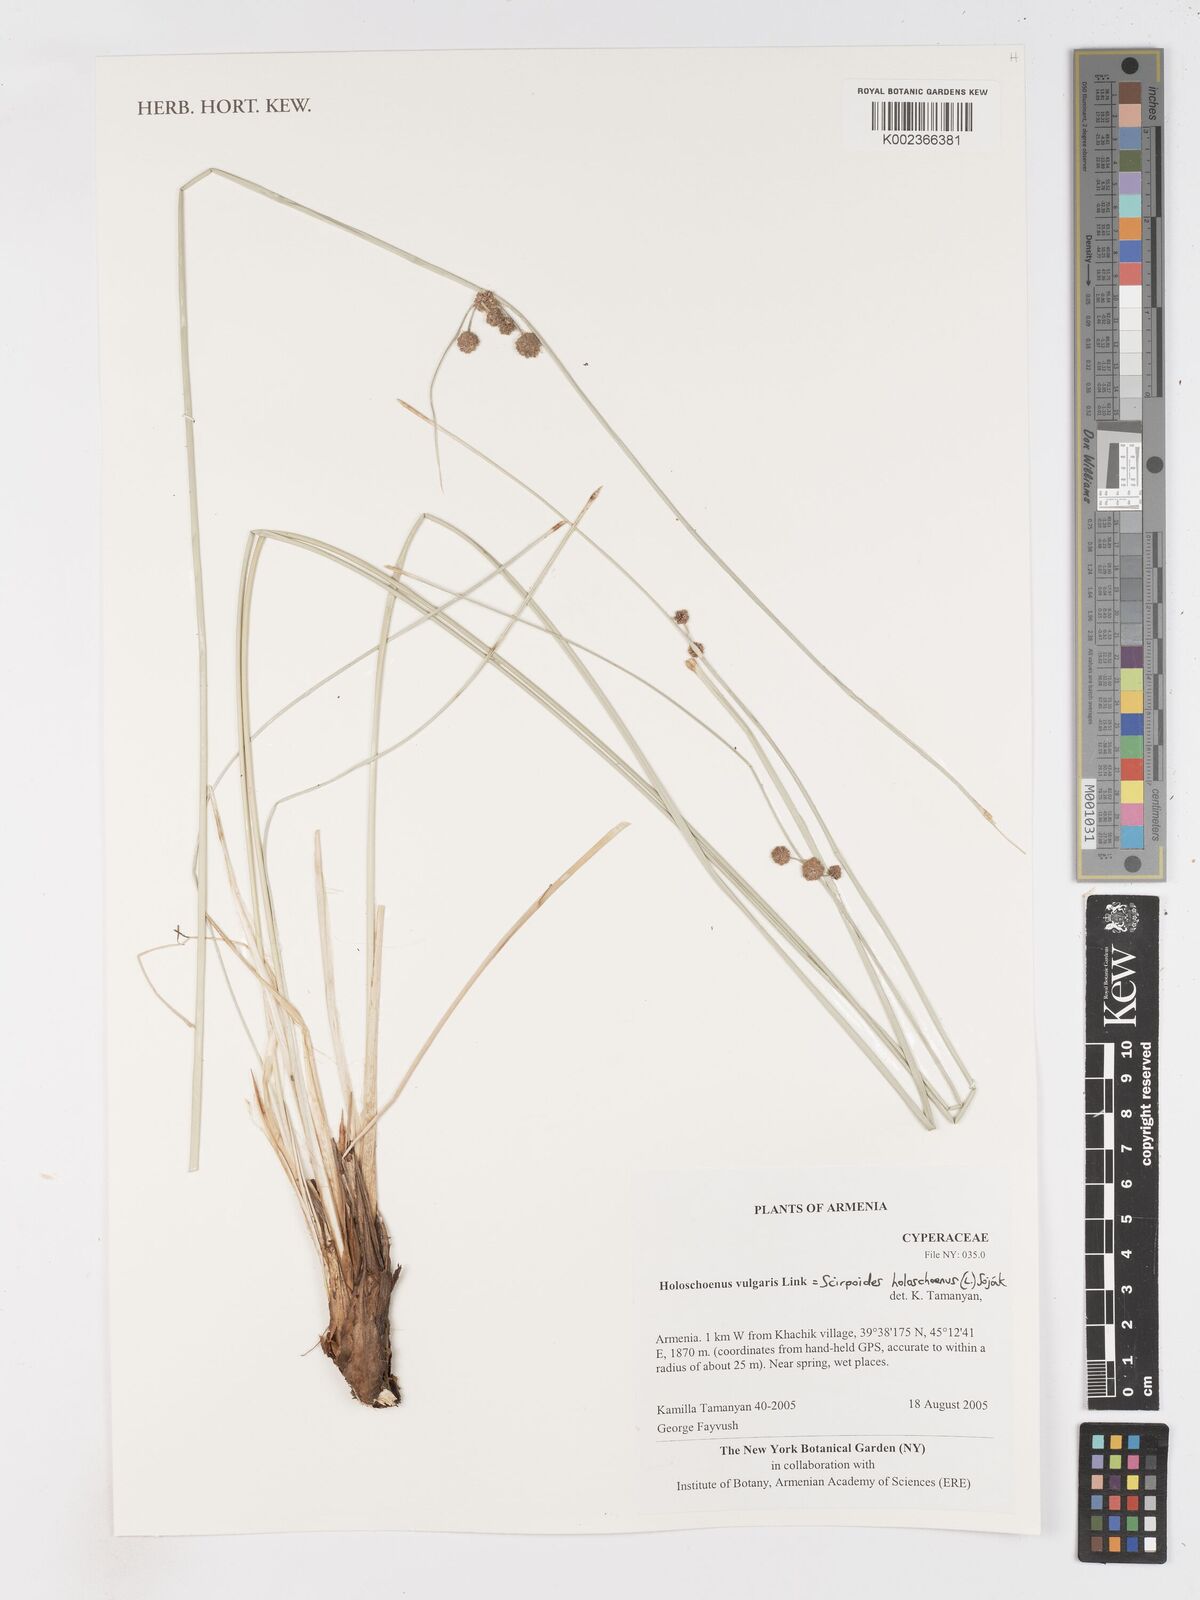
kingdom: Plantae
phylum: Tracheophyta
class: Liliopsida
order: Poales
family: Cyperaceae
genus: Scirpoides
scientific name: Scirpoides holoschoenus
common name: Round-headed club-rush
